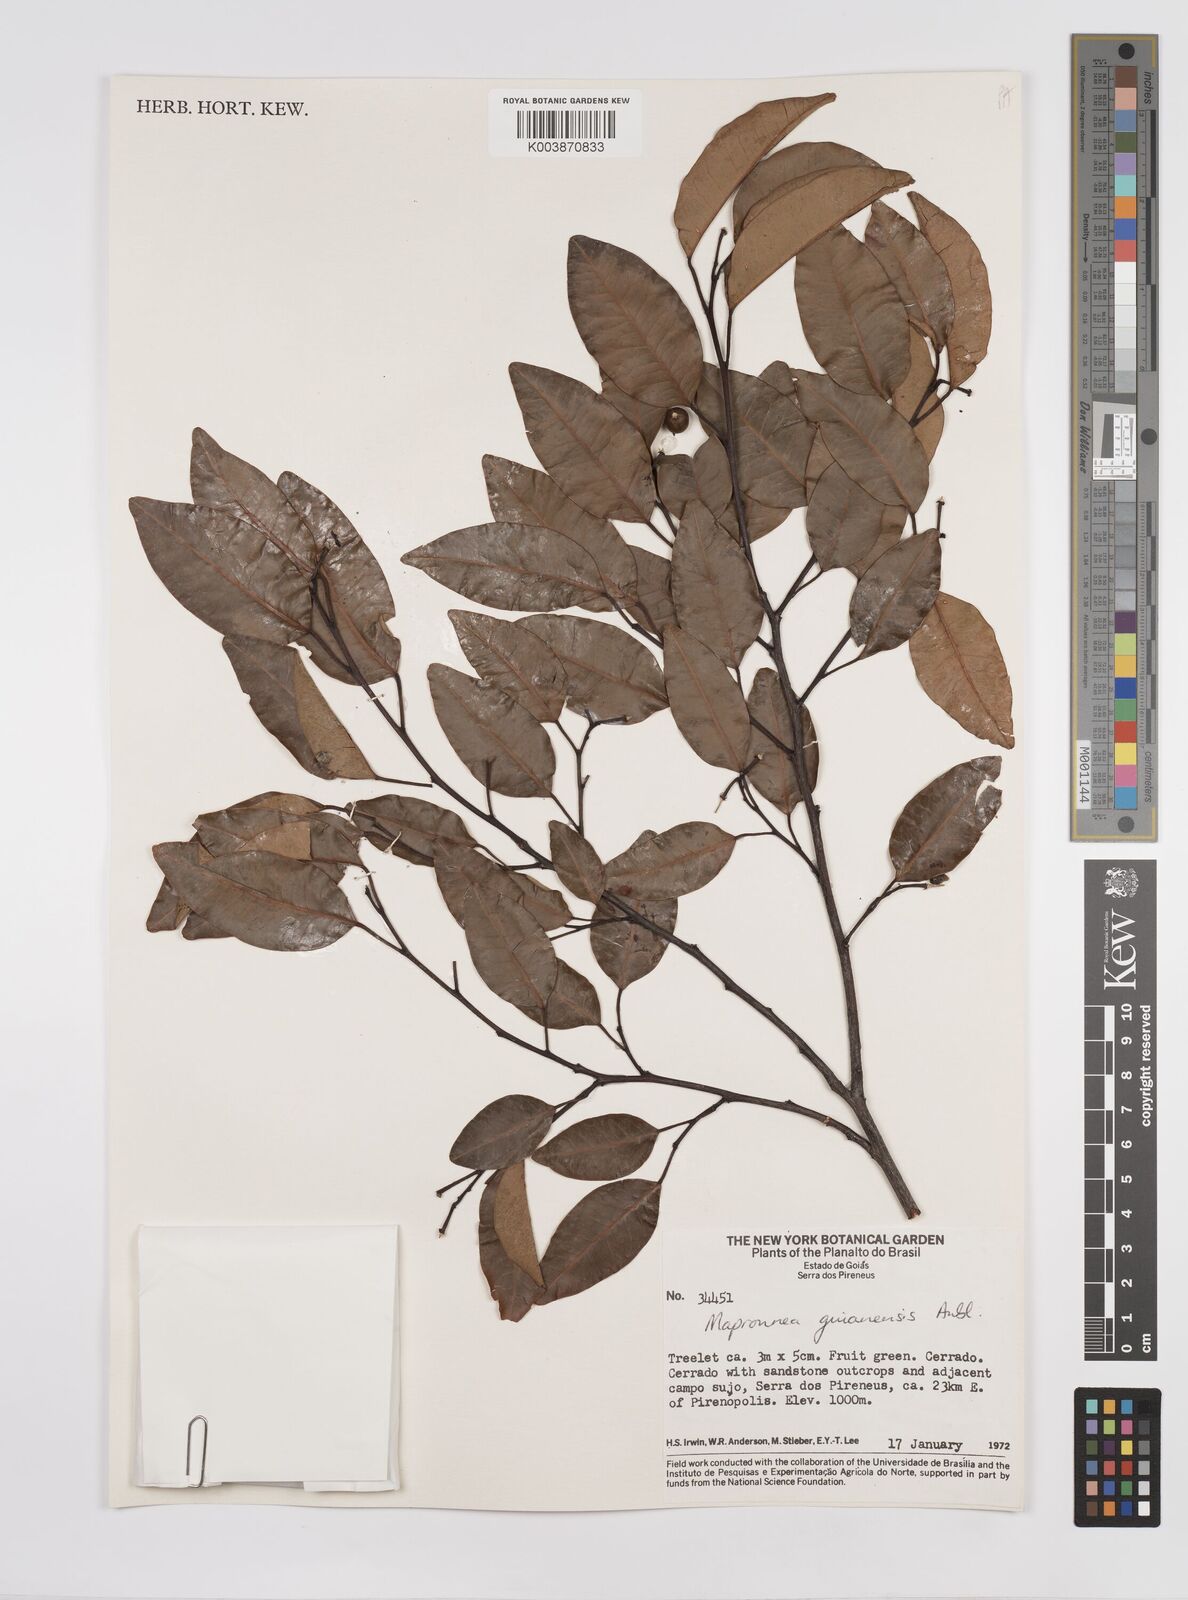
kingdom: Plantae
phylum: Tracheophyta
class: Magnoliopsida
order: Malpighiales
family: Euphorbiaceae
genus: Maprounea
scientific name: Maprounea guianensis
